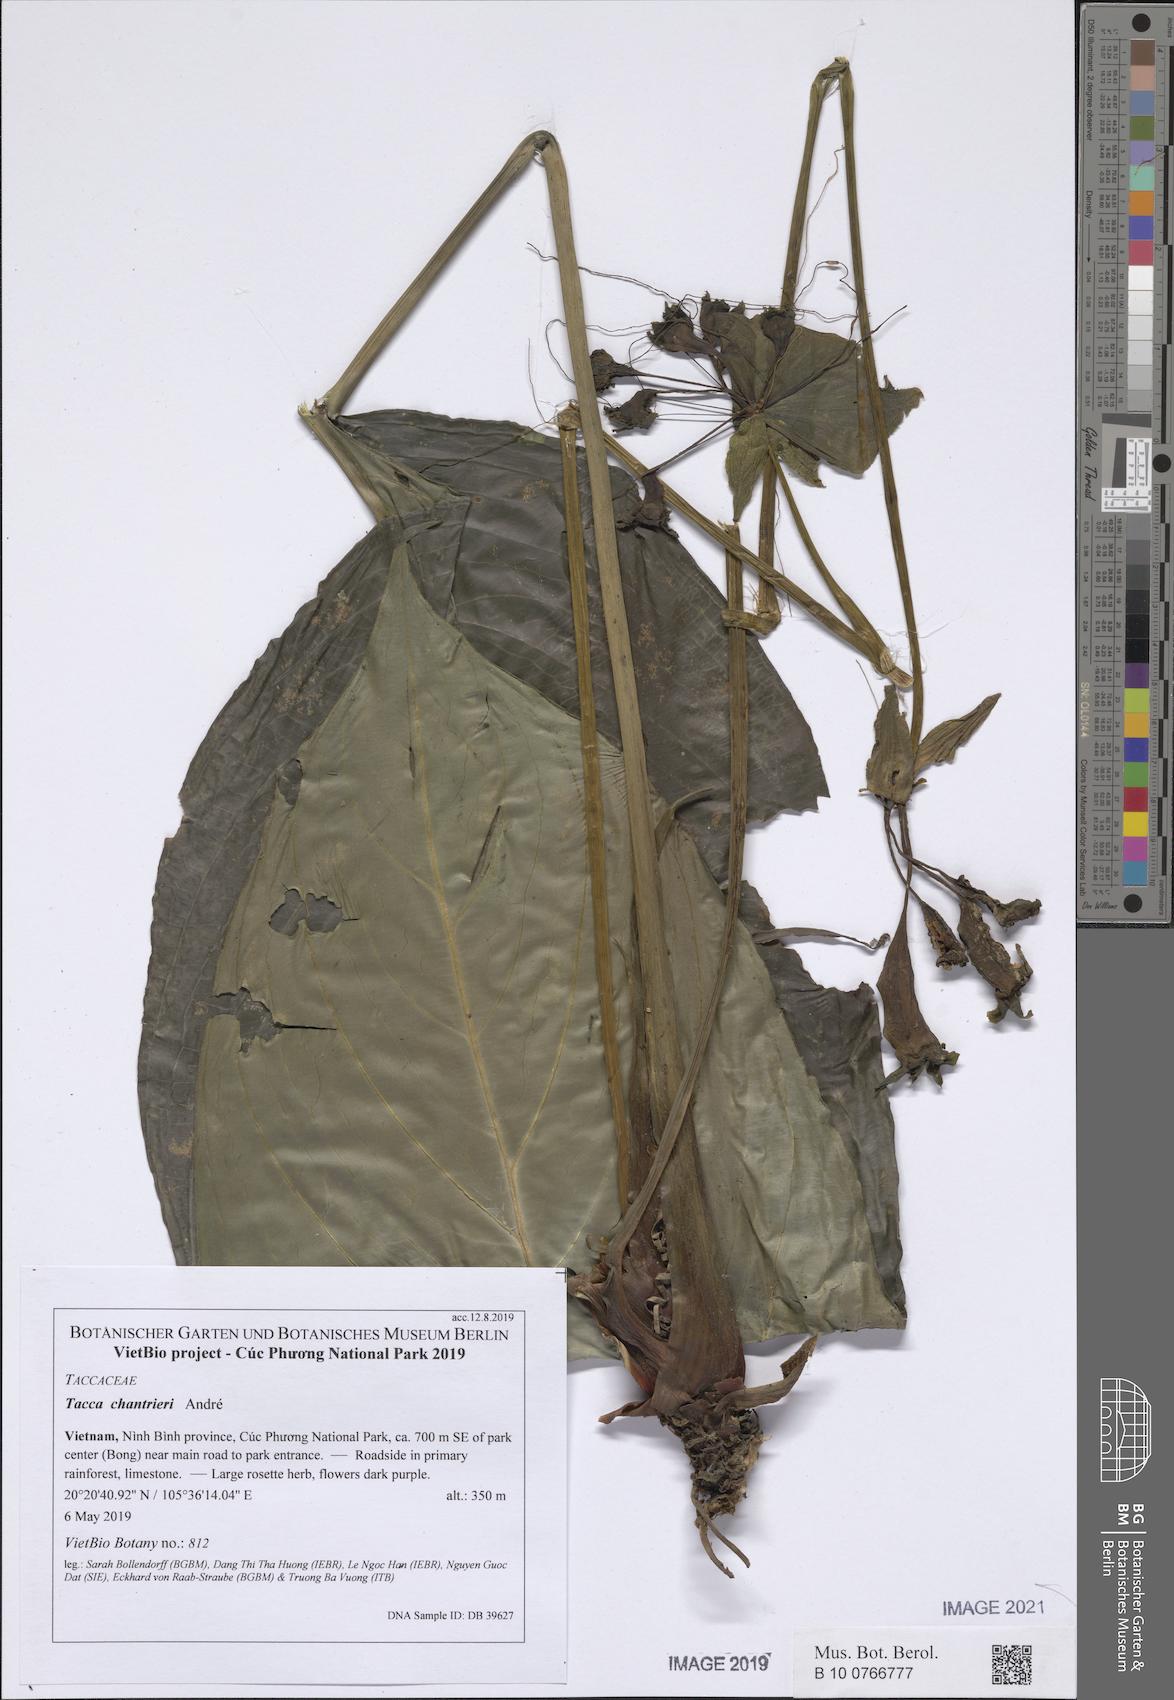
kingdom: Plantae
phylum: Tracheophyta
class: Liliopsida
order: Dioscoreales
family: Dioscoreaceae
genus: Tacca
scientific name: Tacca chantrieri
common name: Cat's-whiskers
